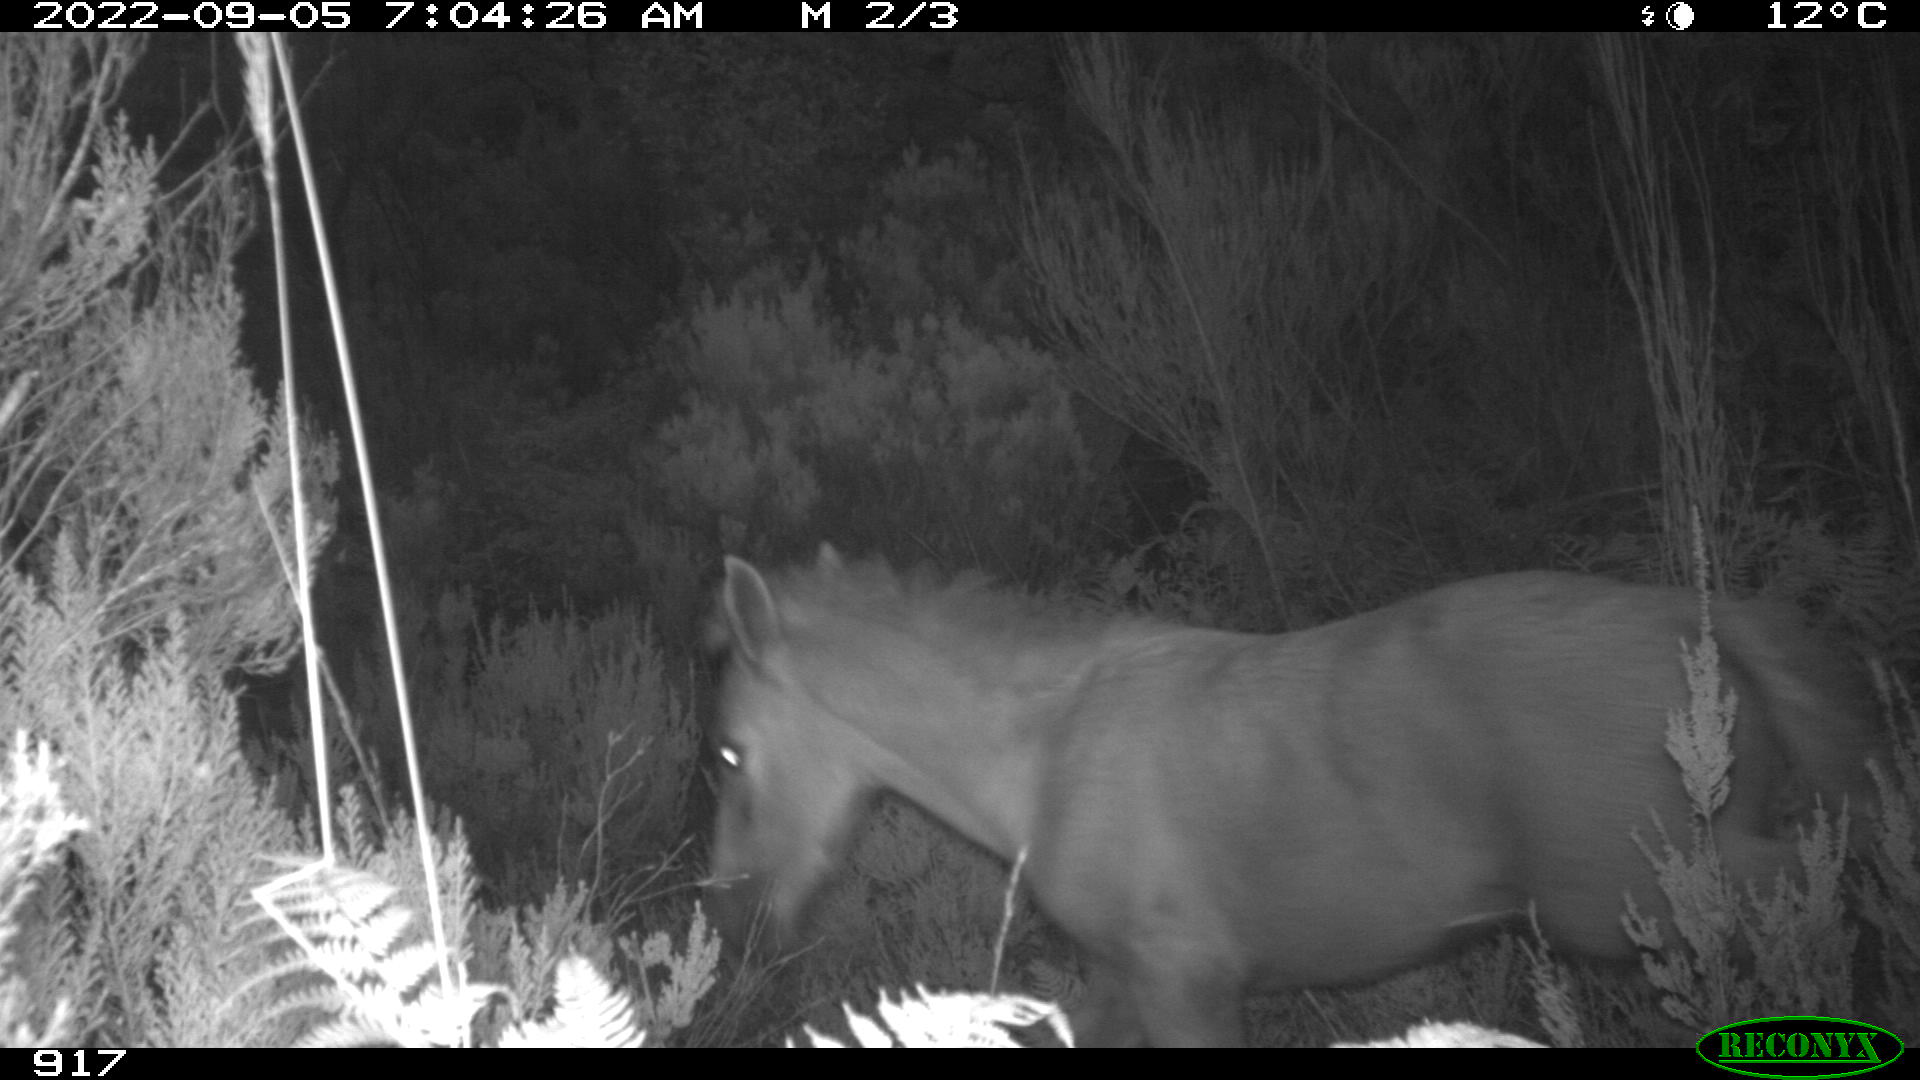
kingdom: Animalia
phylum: Chordata
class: Mammalia
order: Perissodactyla
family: Equidae
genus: Equus
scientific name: Equus caballus
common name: Horse
